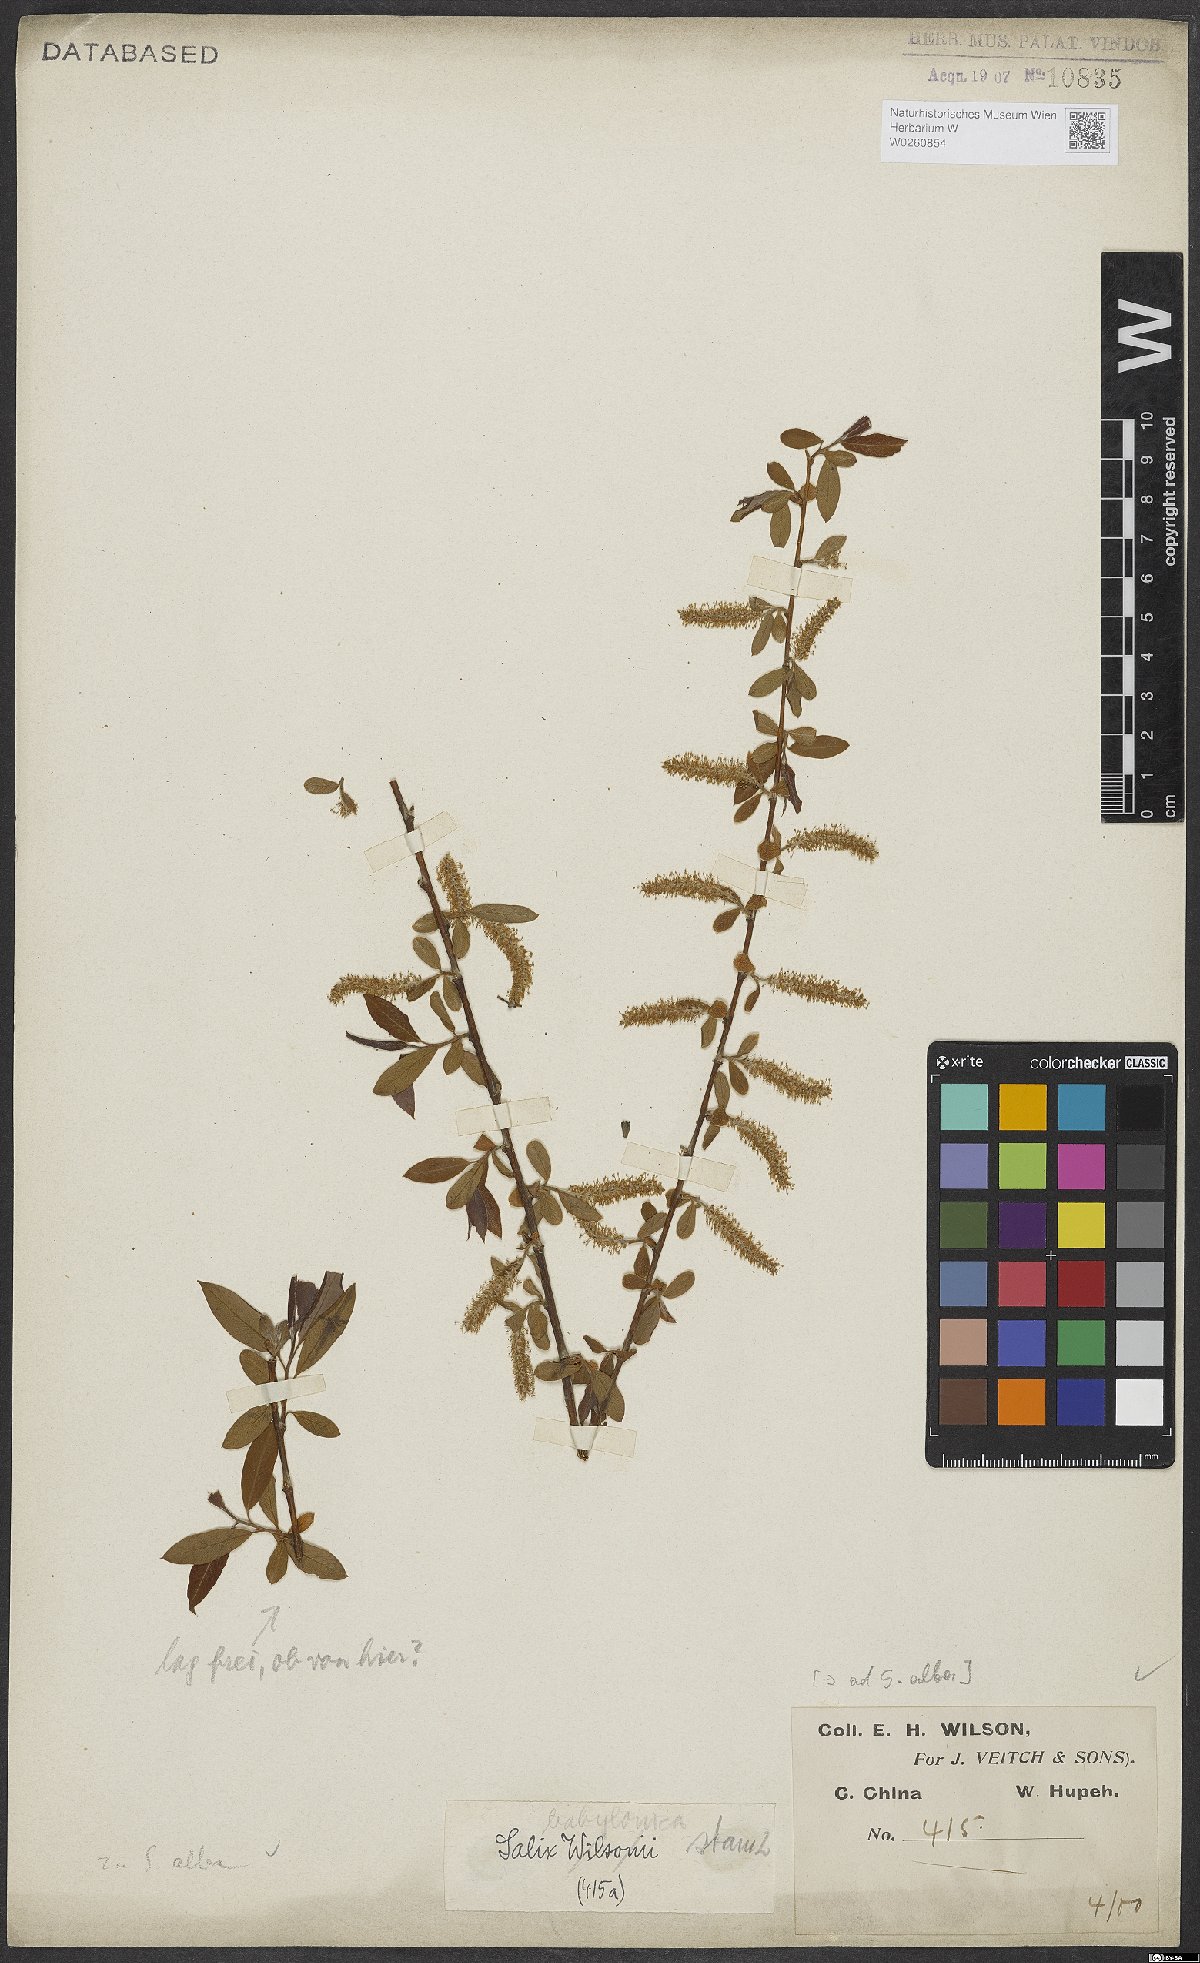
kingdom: Plantae
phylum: Tracheophyta
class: Magnoliopsida
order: Malpighiales
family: Salicaceae
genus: Salix
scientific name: Salix alba
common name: White willow
